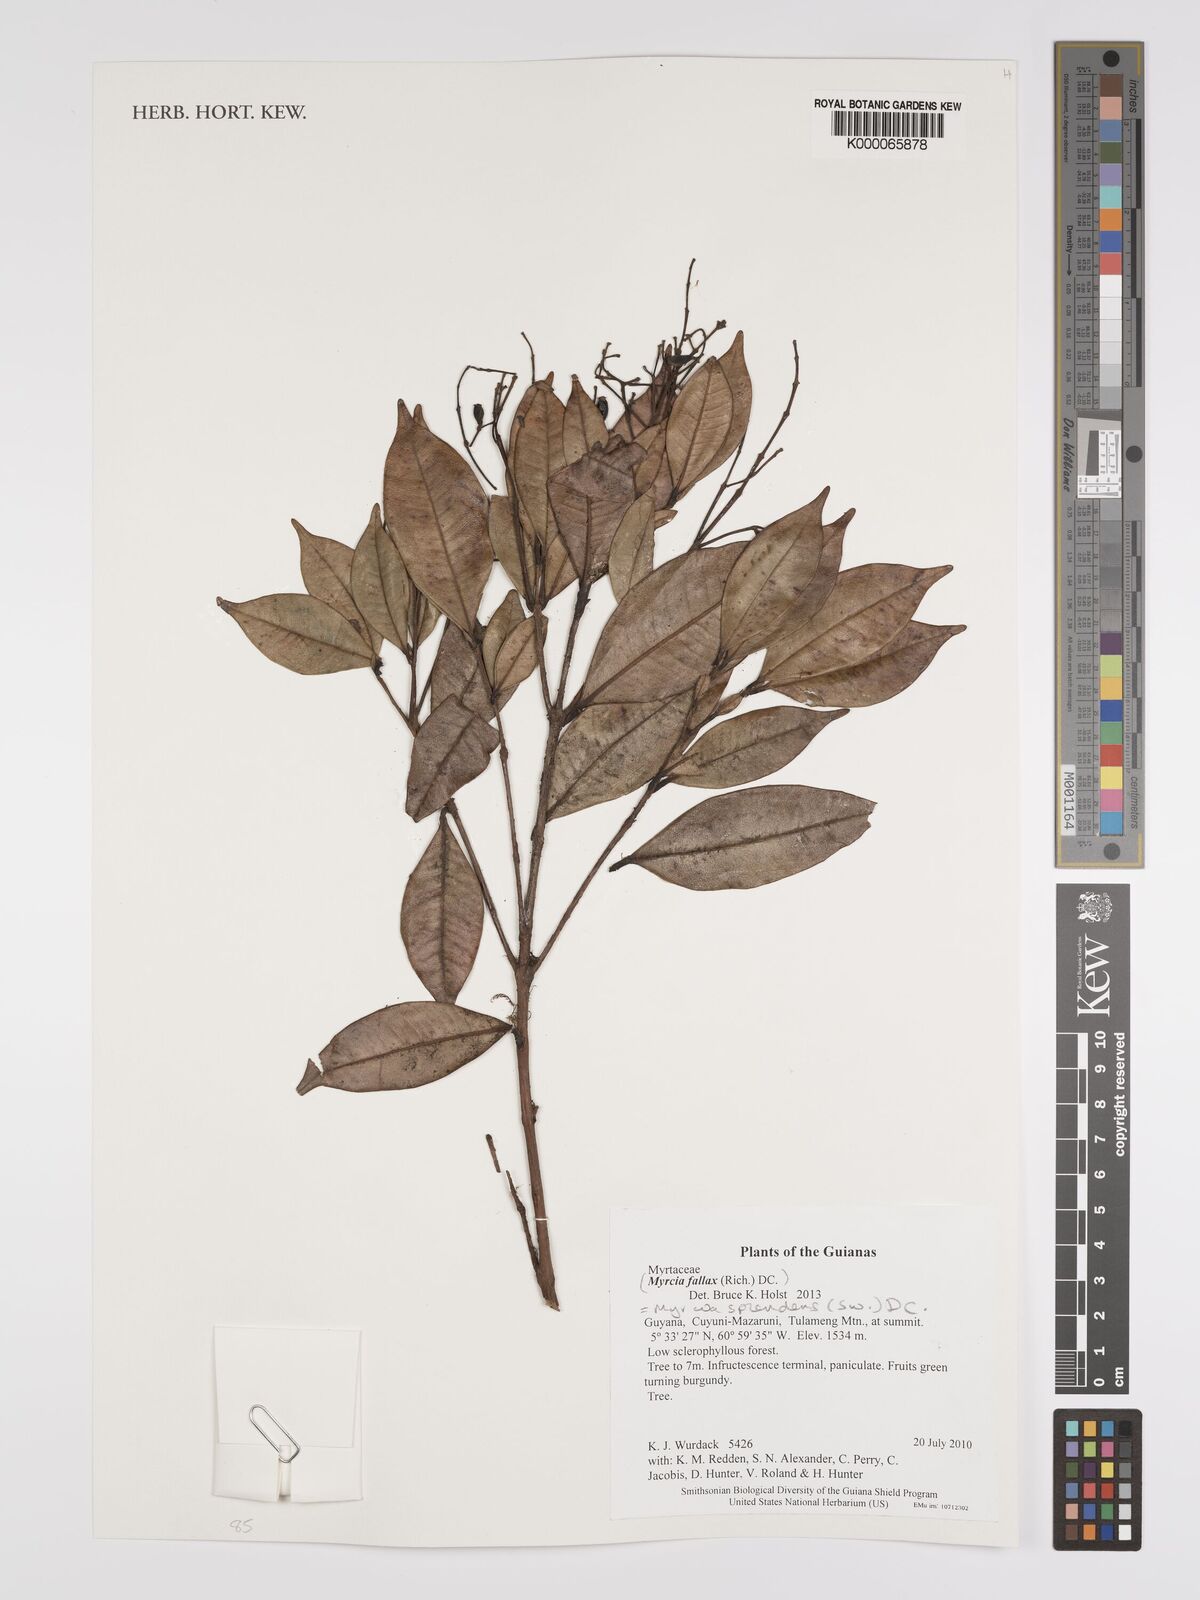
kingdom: Plantae
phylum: Tracheophyta
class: Magnoliopsida
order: Myrtales
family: Myrtaceae
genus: Myrcia
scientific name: Myrcia splendens
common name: Surinam cherry
